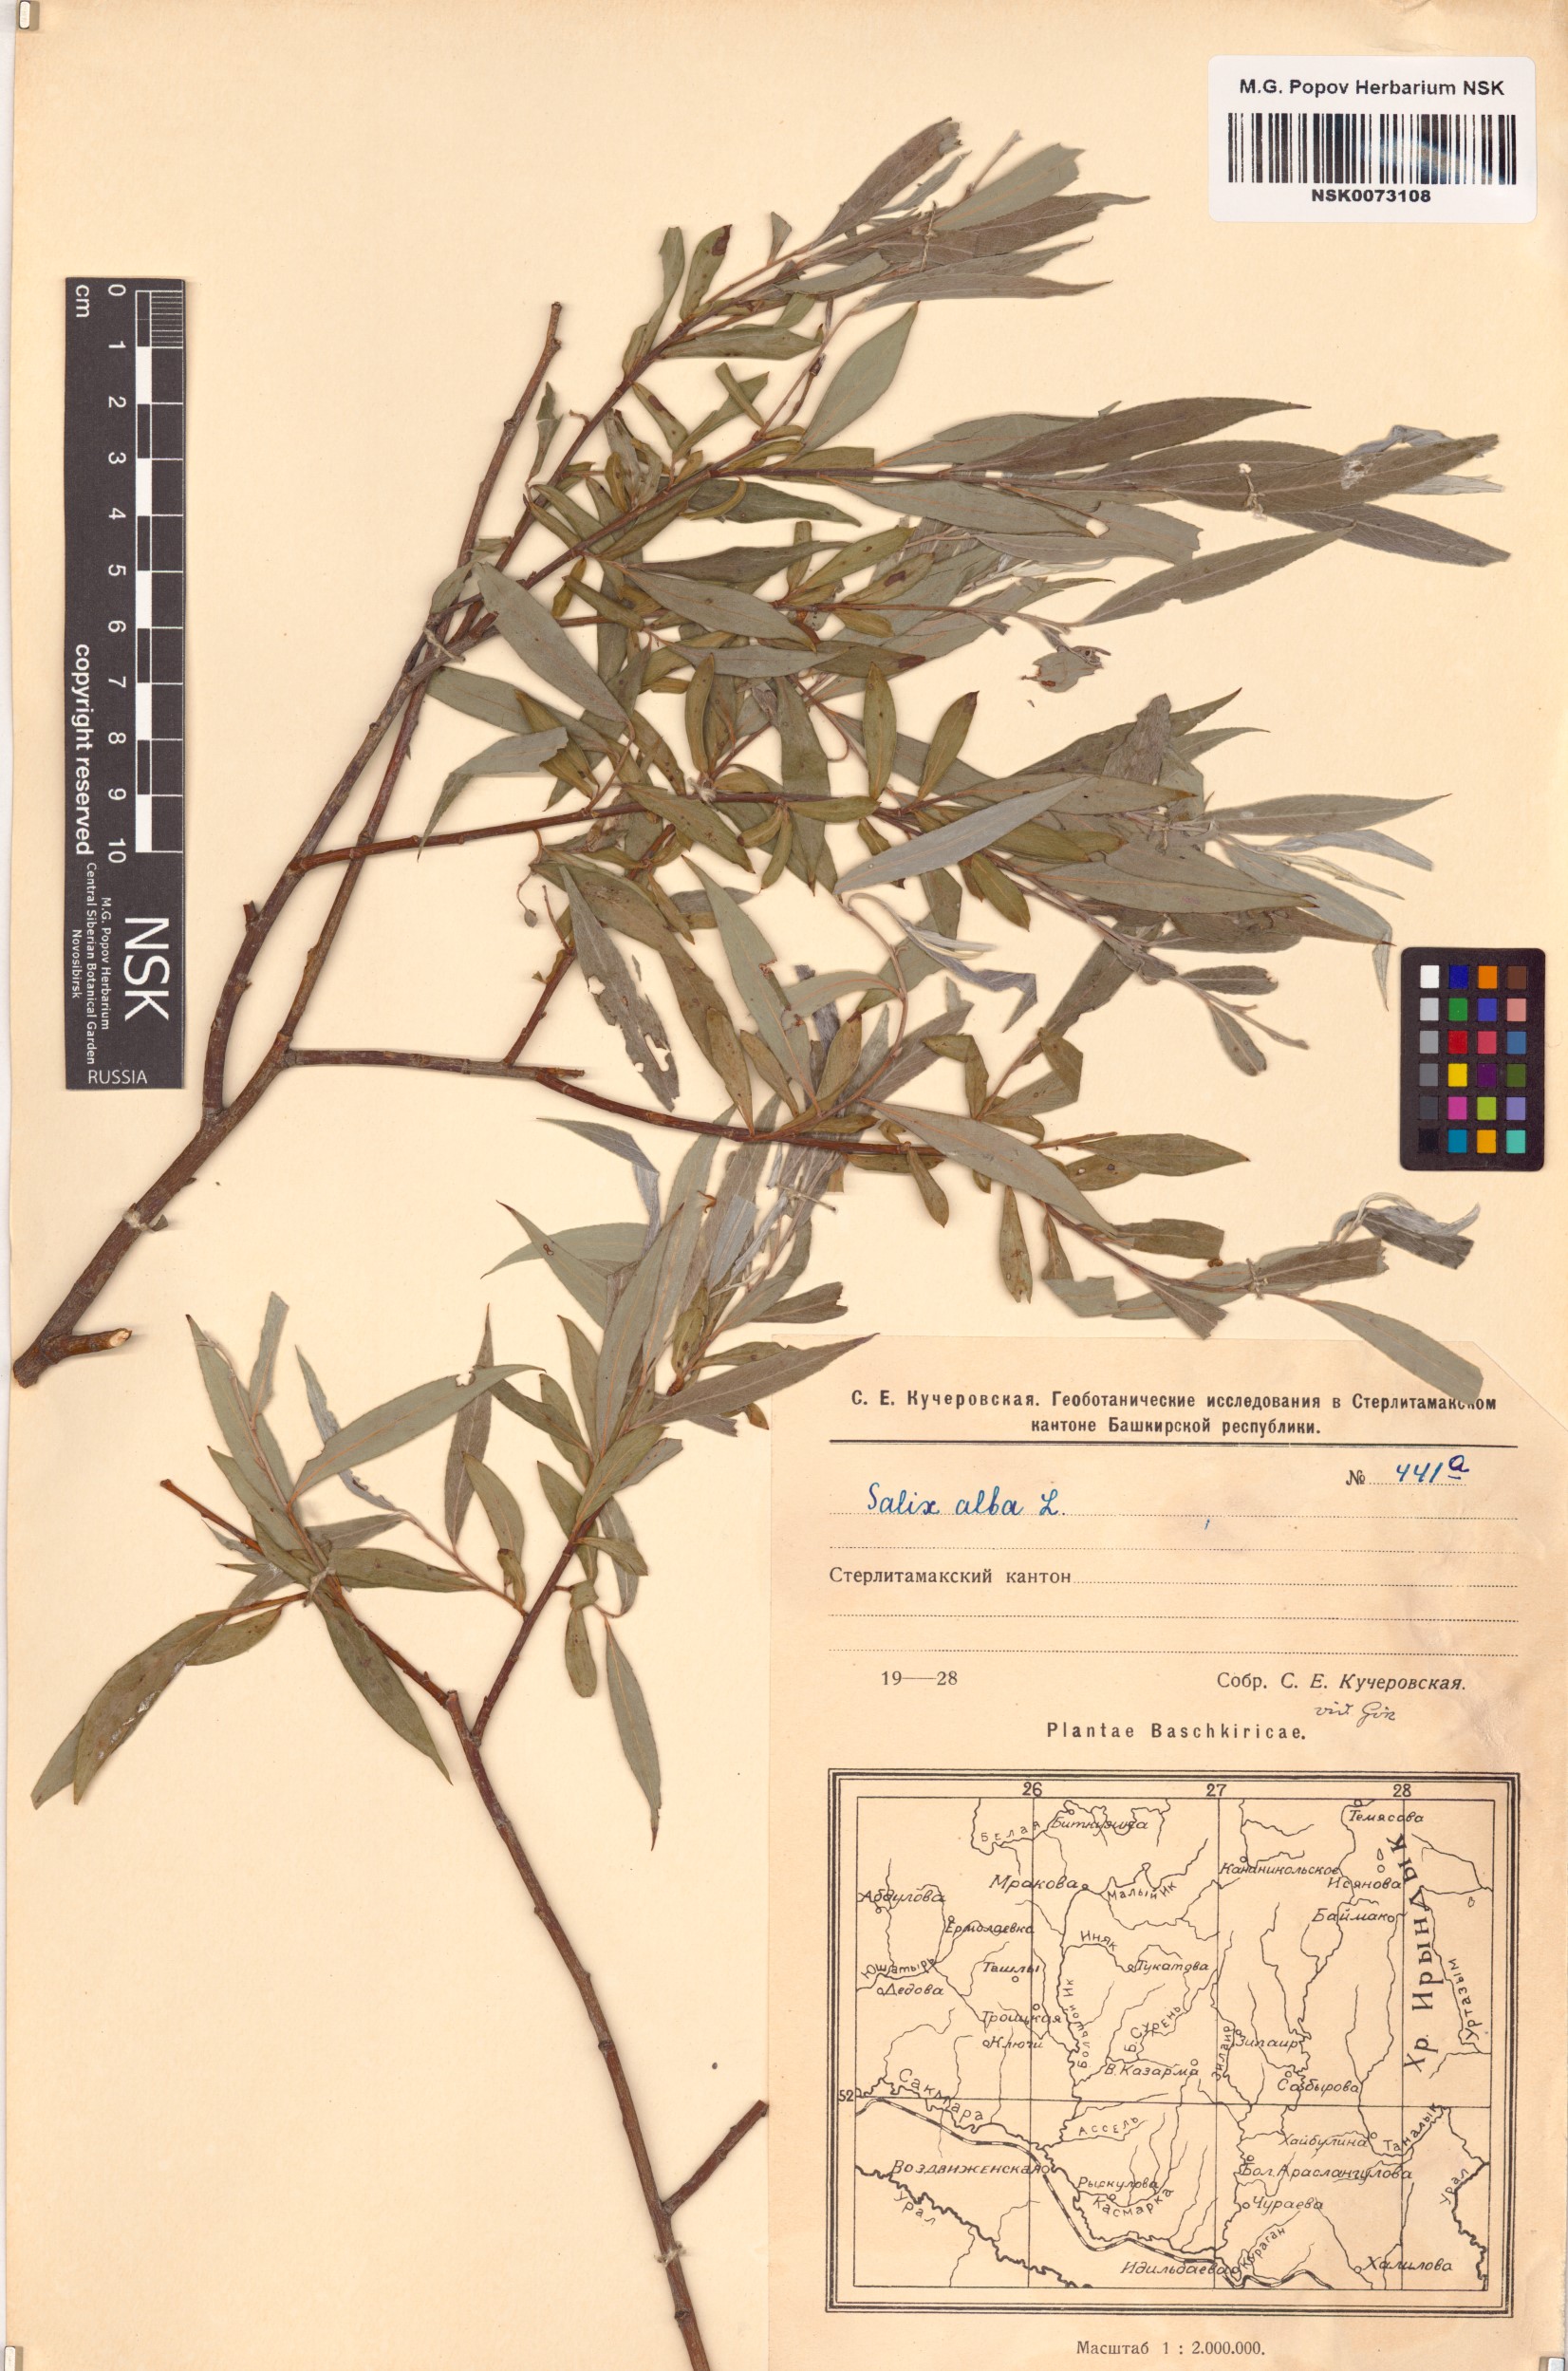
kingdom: Plantae
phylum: Tracheophyta
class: Magnoliopsida
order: Malpighiales
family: Salicaceae
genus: Salix
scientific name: Salix alba
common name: White willow
